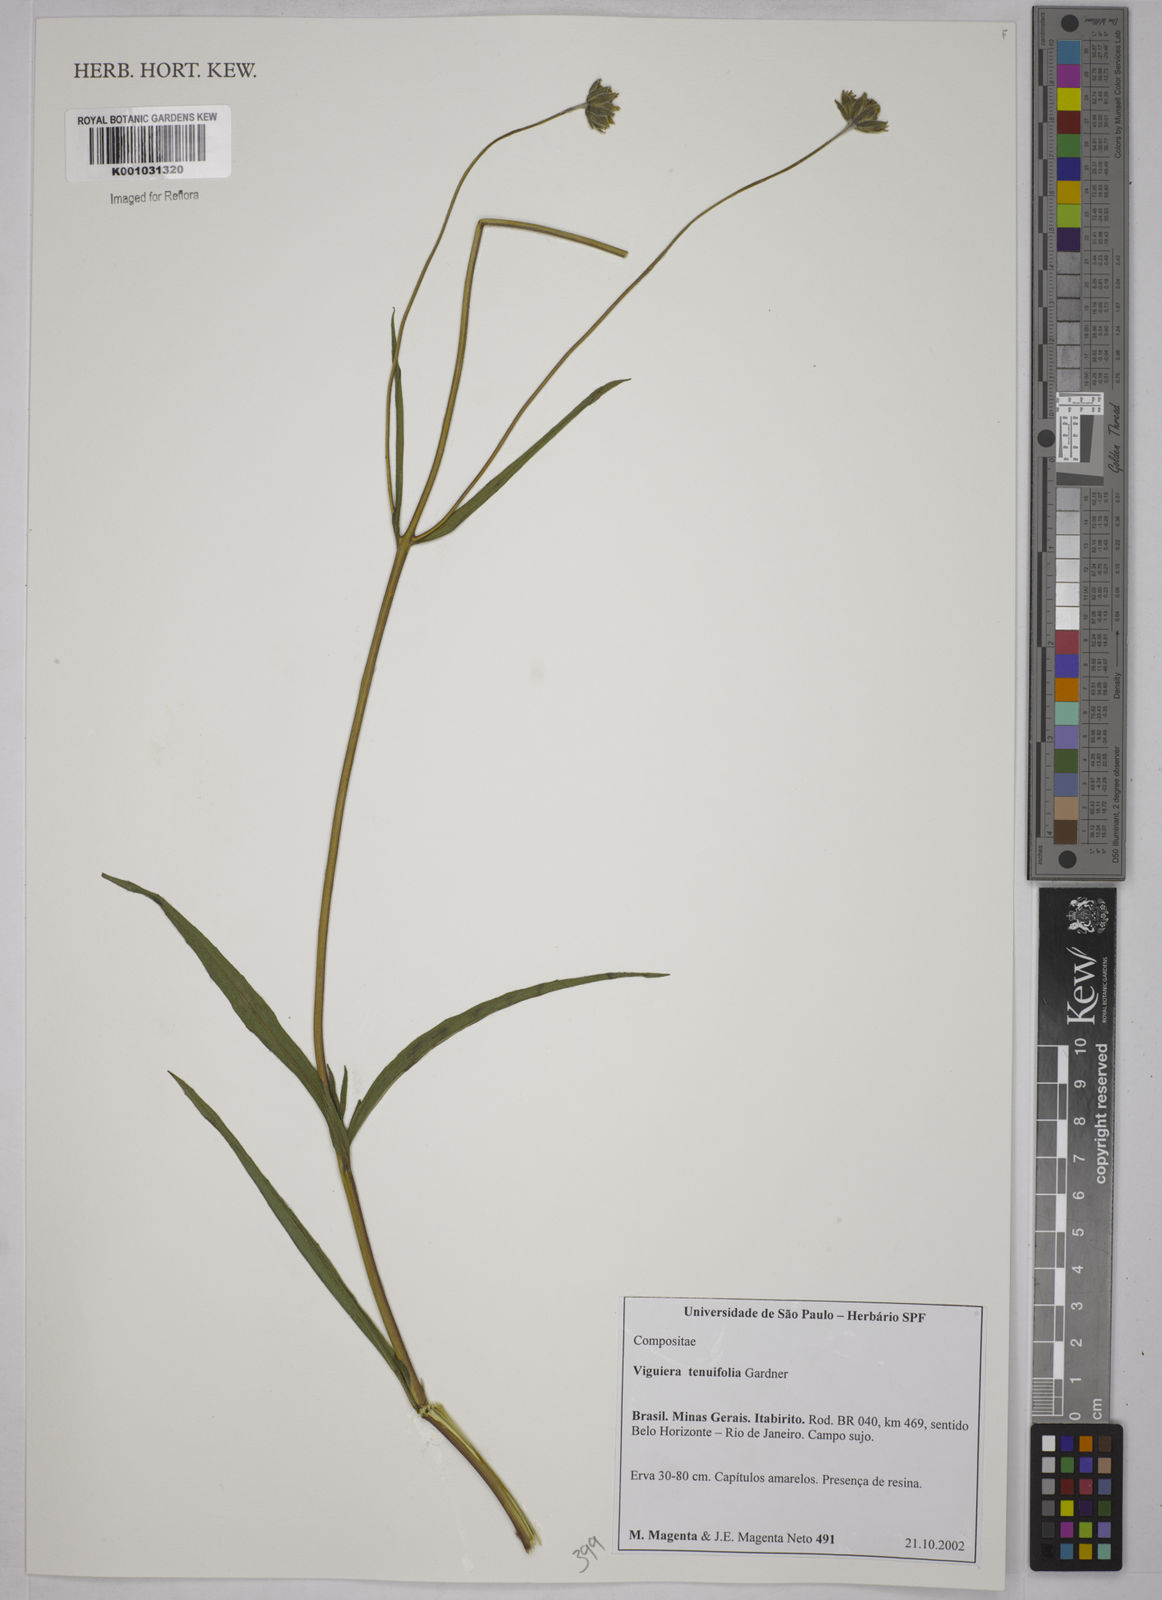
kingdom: Plantae
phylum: Tracheophyta
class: Magnoliopsida
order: Asterales
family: Asteraceae
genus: Aldama
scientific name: Aldama tenuifolia
